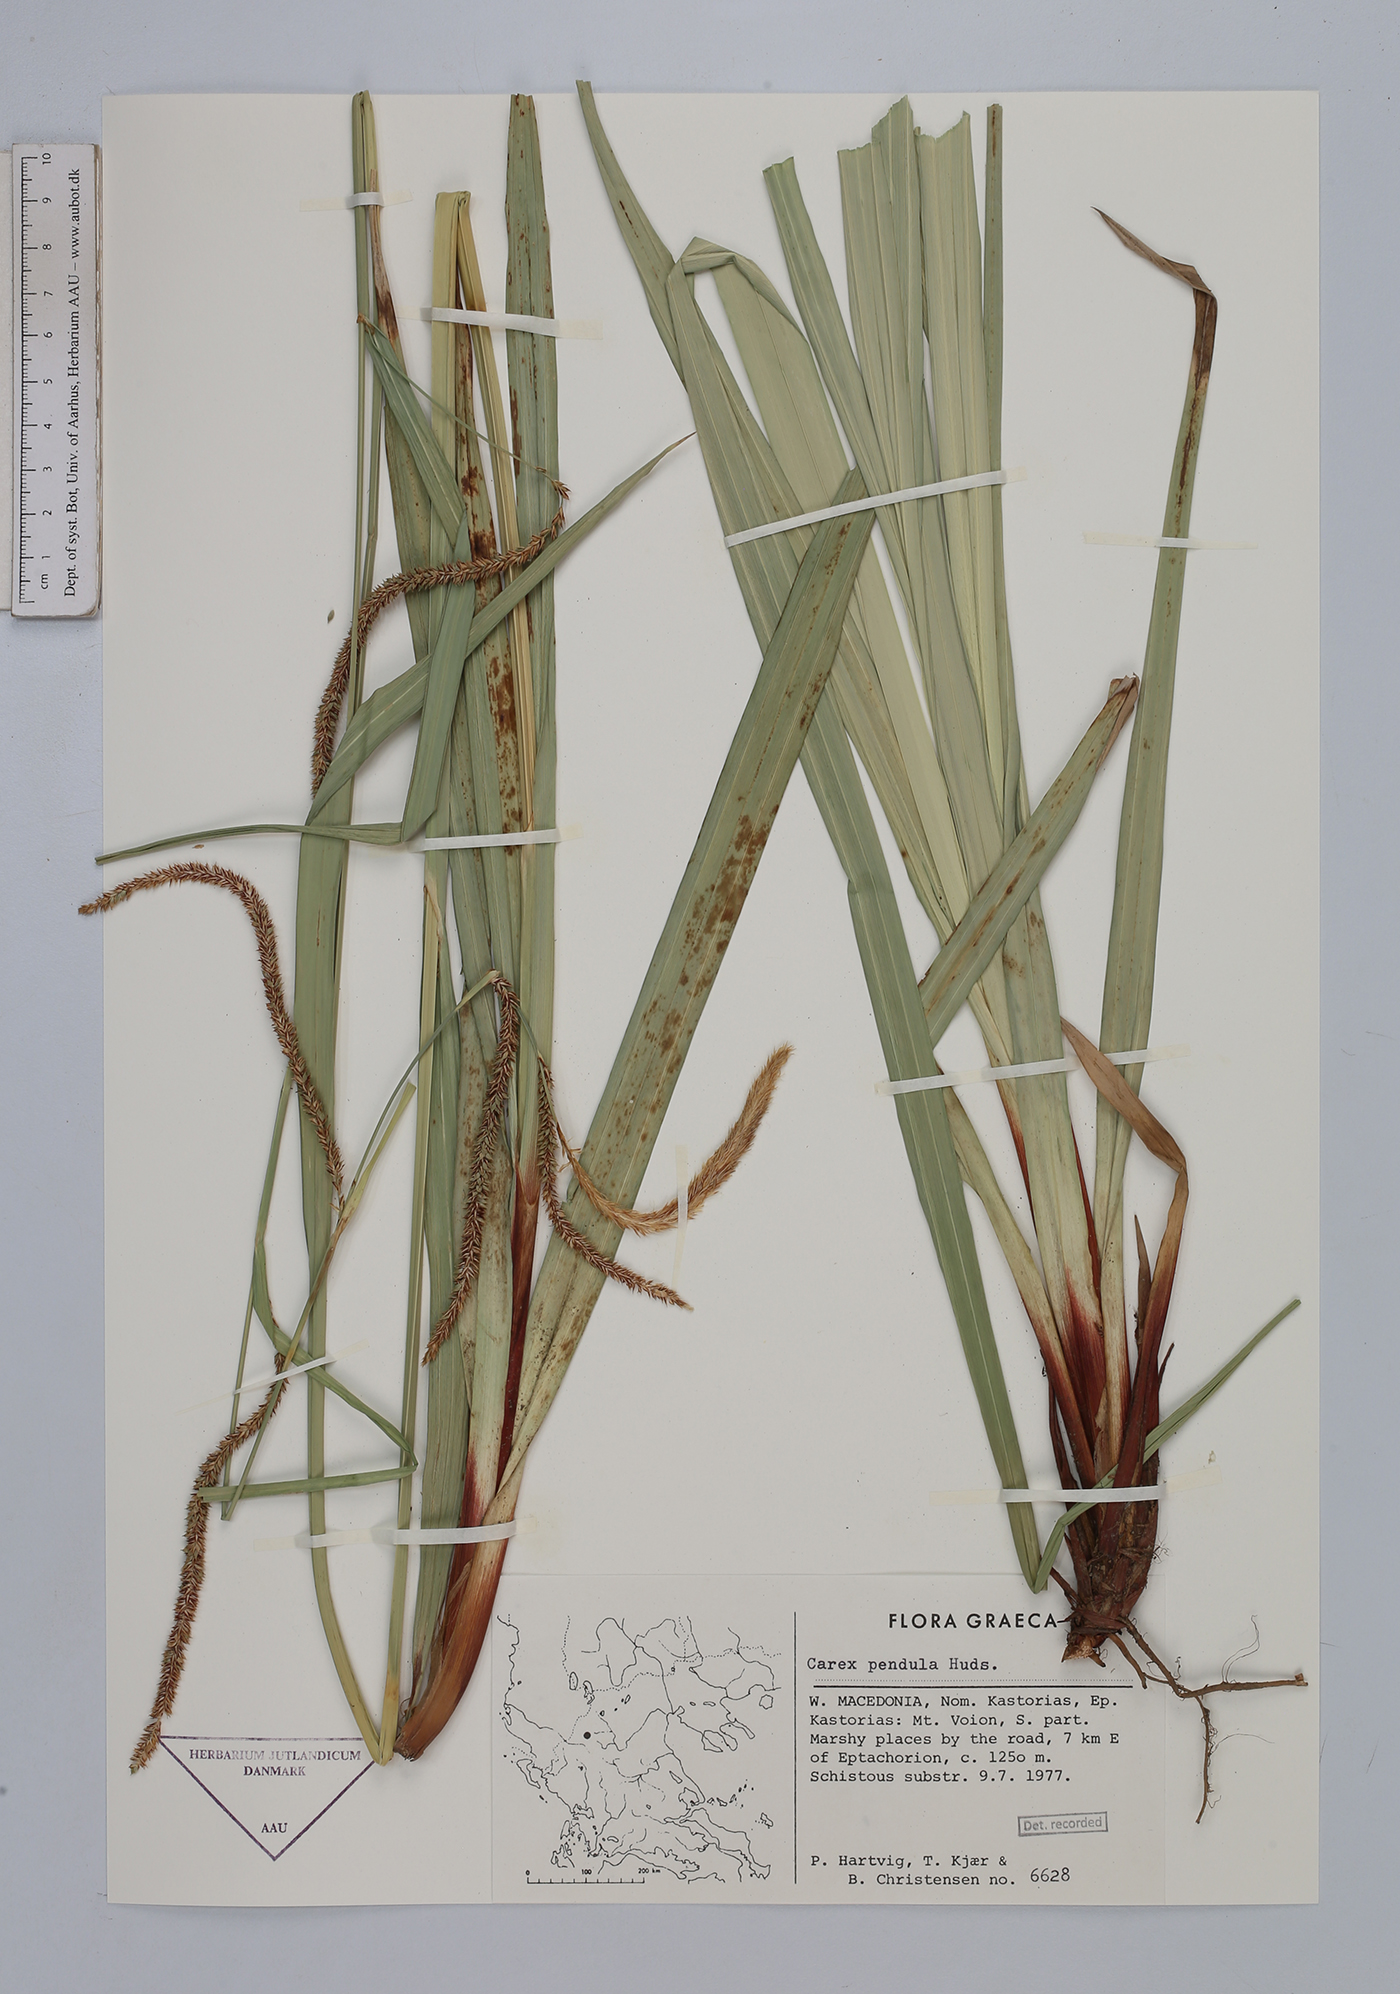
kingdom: Plantae
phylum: Tracheophyta
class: Liliopsida
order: Poales
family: Cyperaceae
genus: Carex
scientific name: Carex pendula
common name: Pendulous sedge
